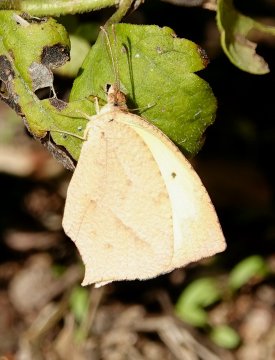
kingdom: Animalia
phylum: Arthropoda
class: Insecta
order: Lepidoptera
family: Pieridae
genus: Eurema
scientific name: Eurema mexicana
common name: Mexican Yellow
